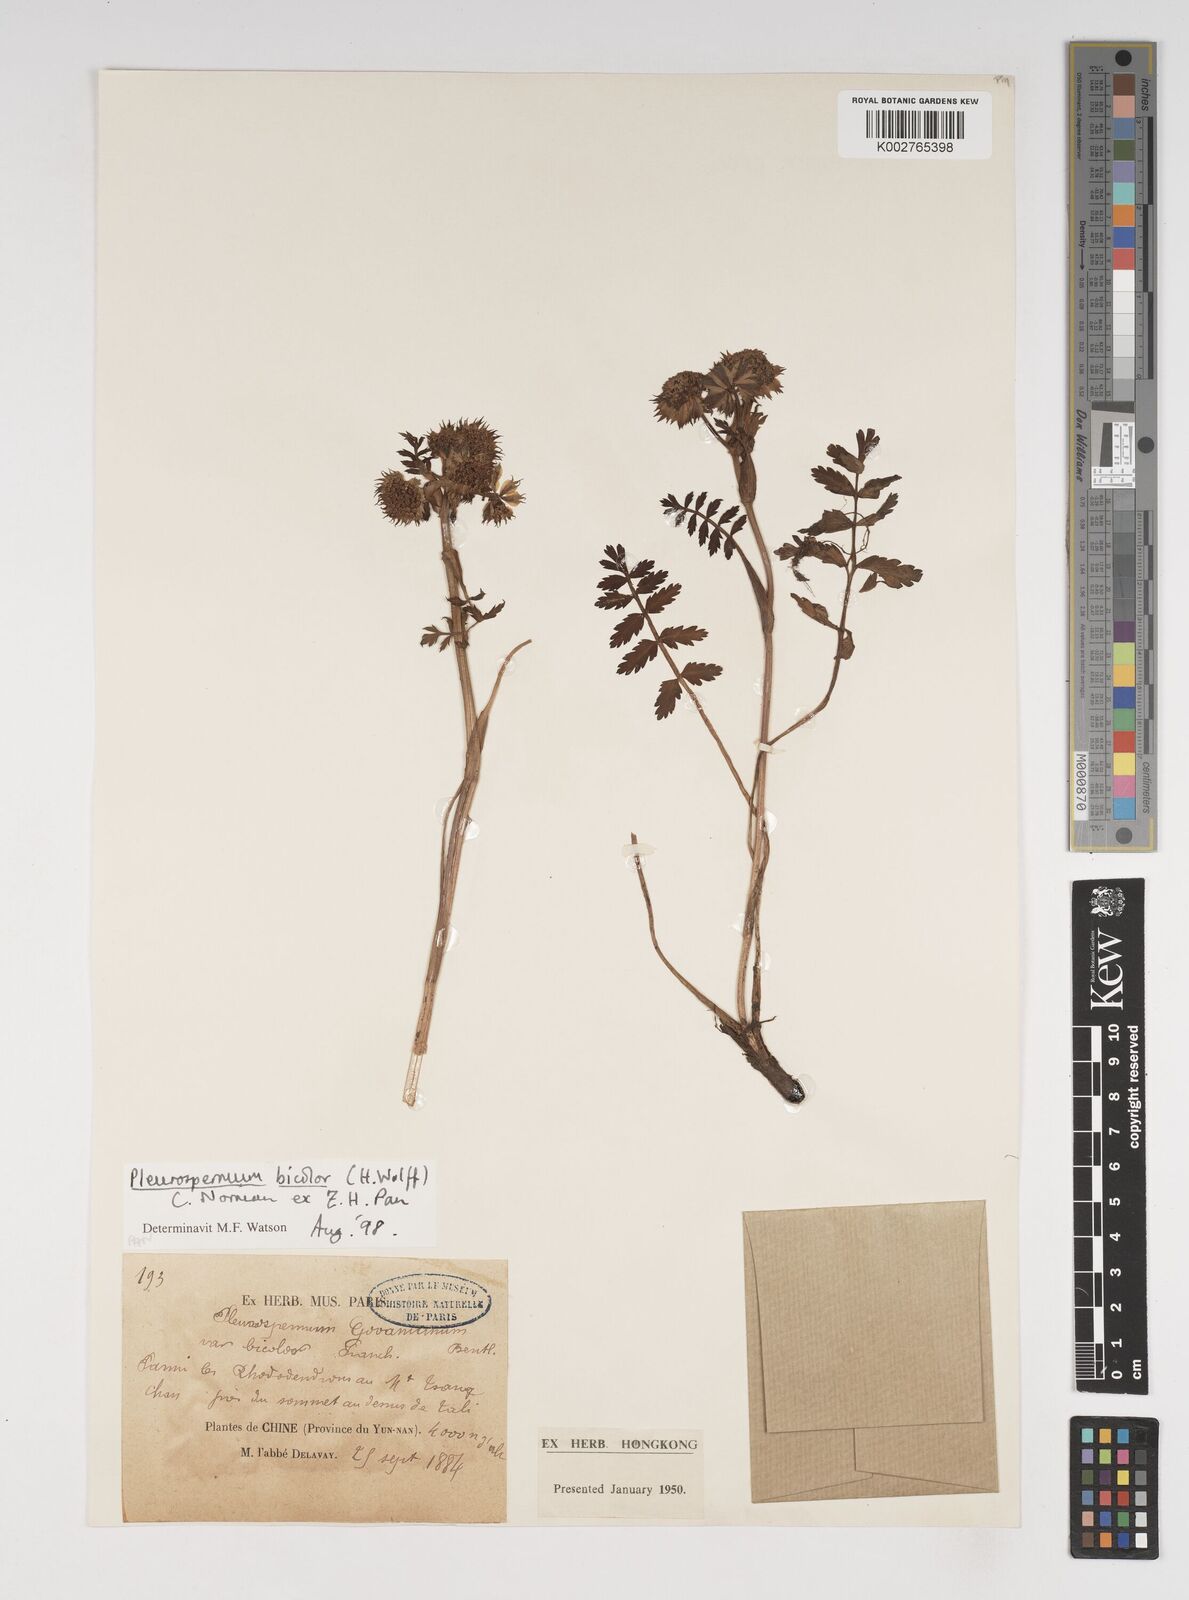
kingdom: Plantae
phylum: Tracheophyta
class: Magnoliopsida
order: Apiales
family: Apiaceae
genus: Pleurospermopsis
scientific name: Pleurospermopsis bicolor
